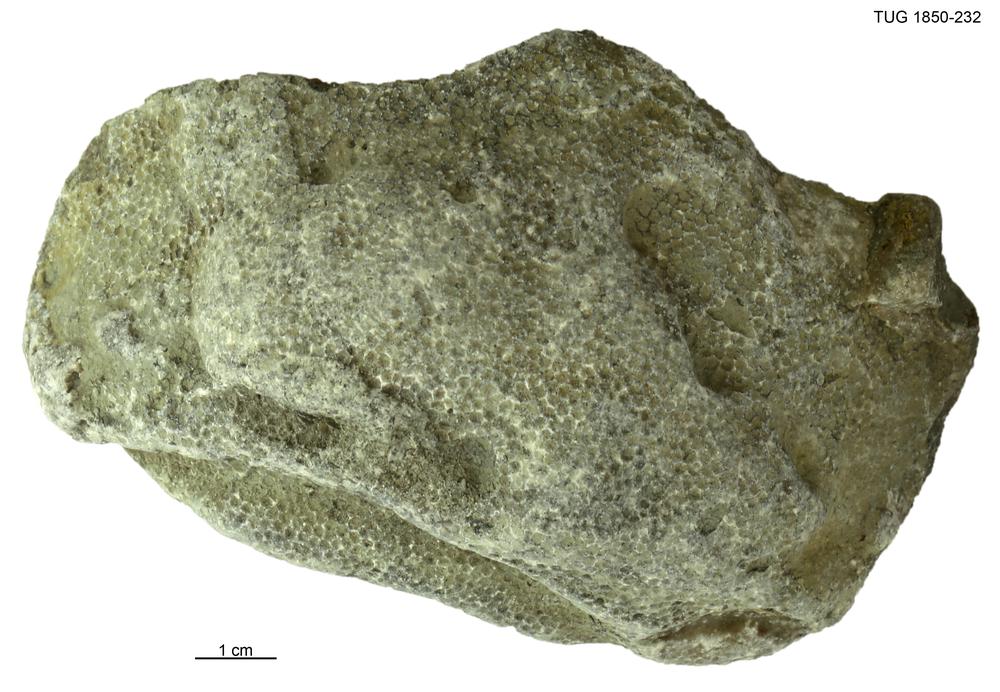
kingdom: Animalia
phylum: Cnidaria
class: Anthozoa
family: Favositidae
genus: Favosites
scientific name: Favosites
